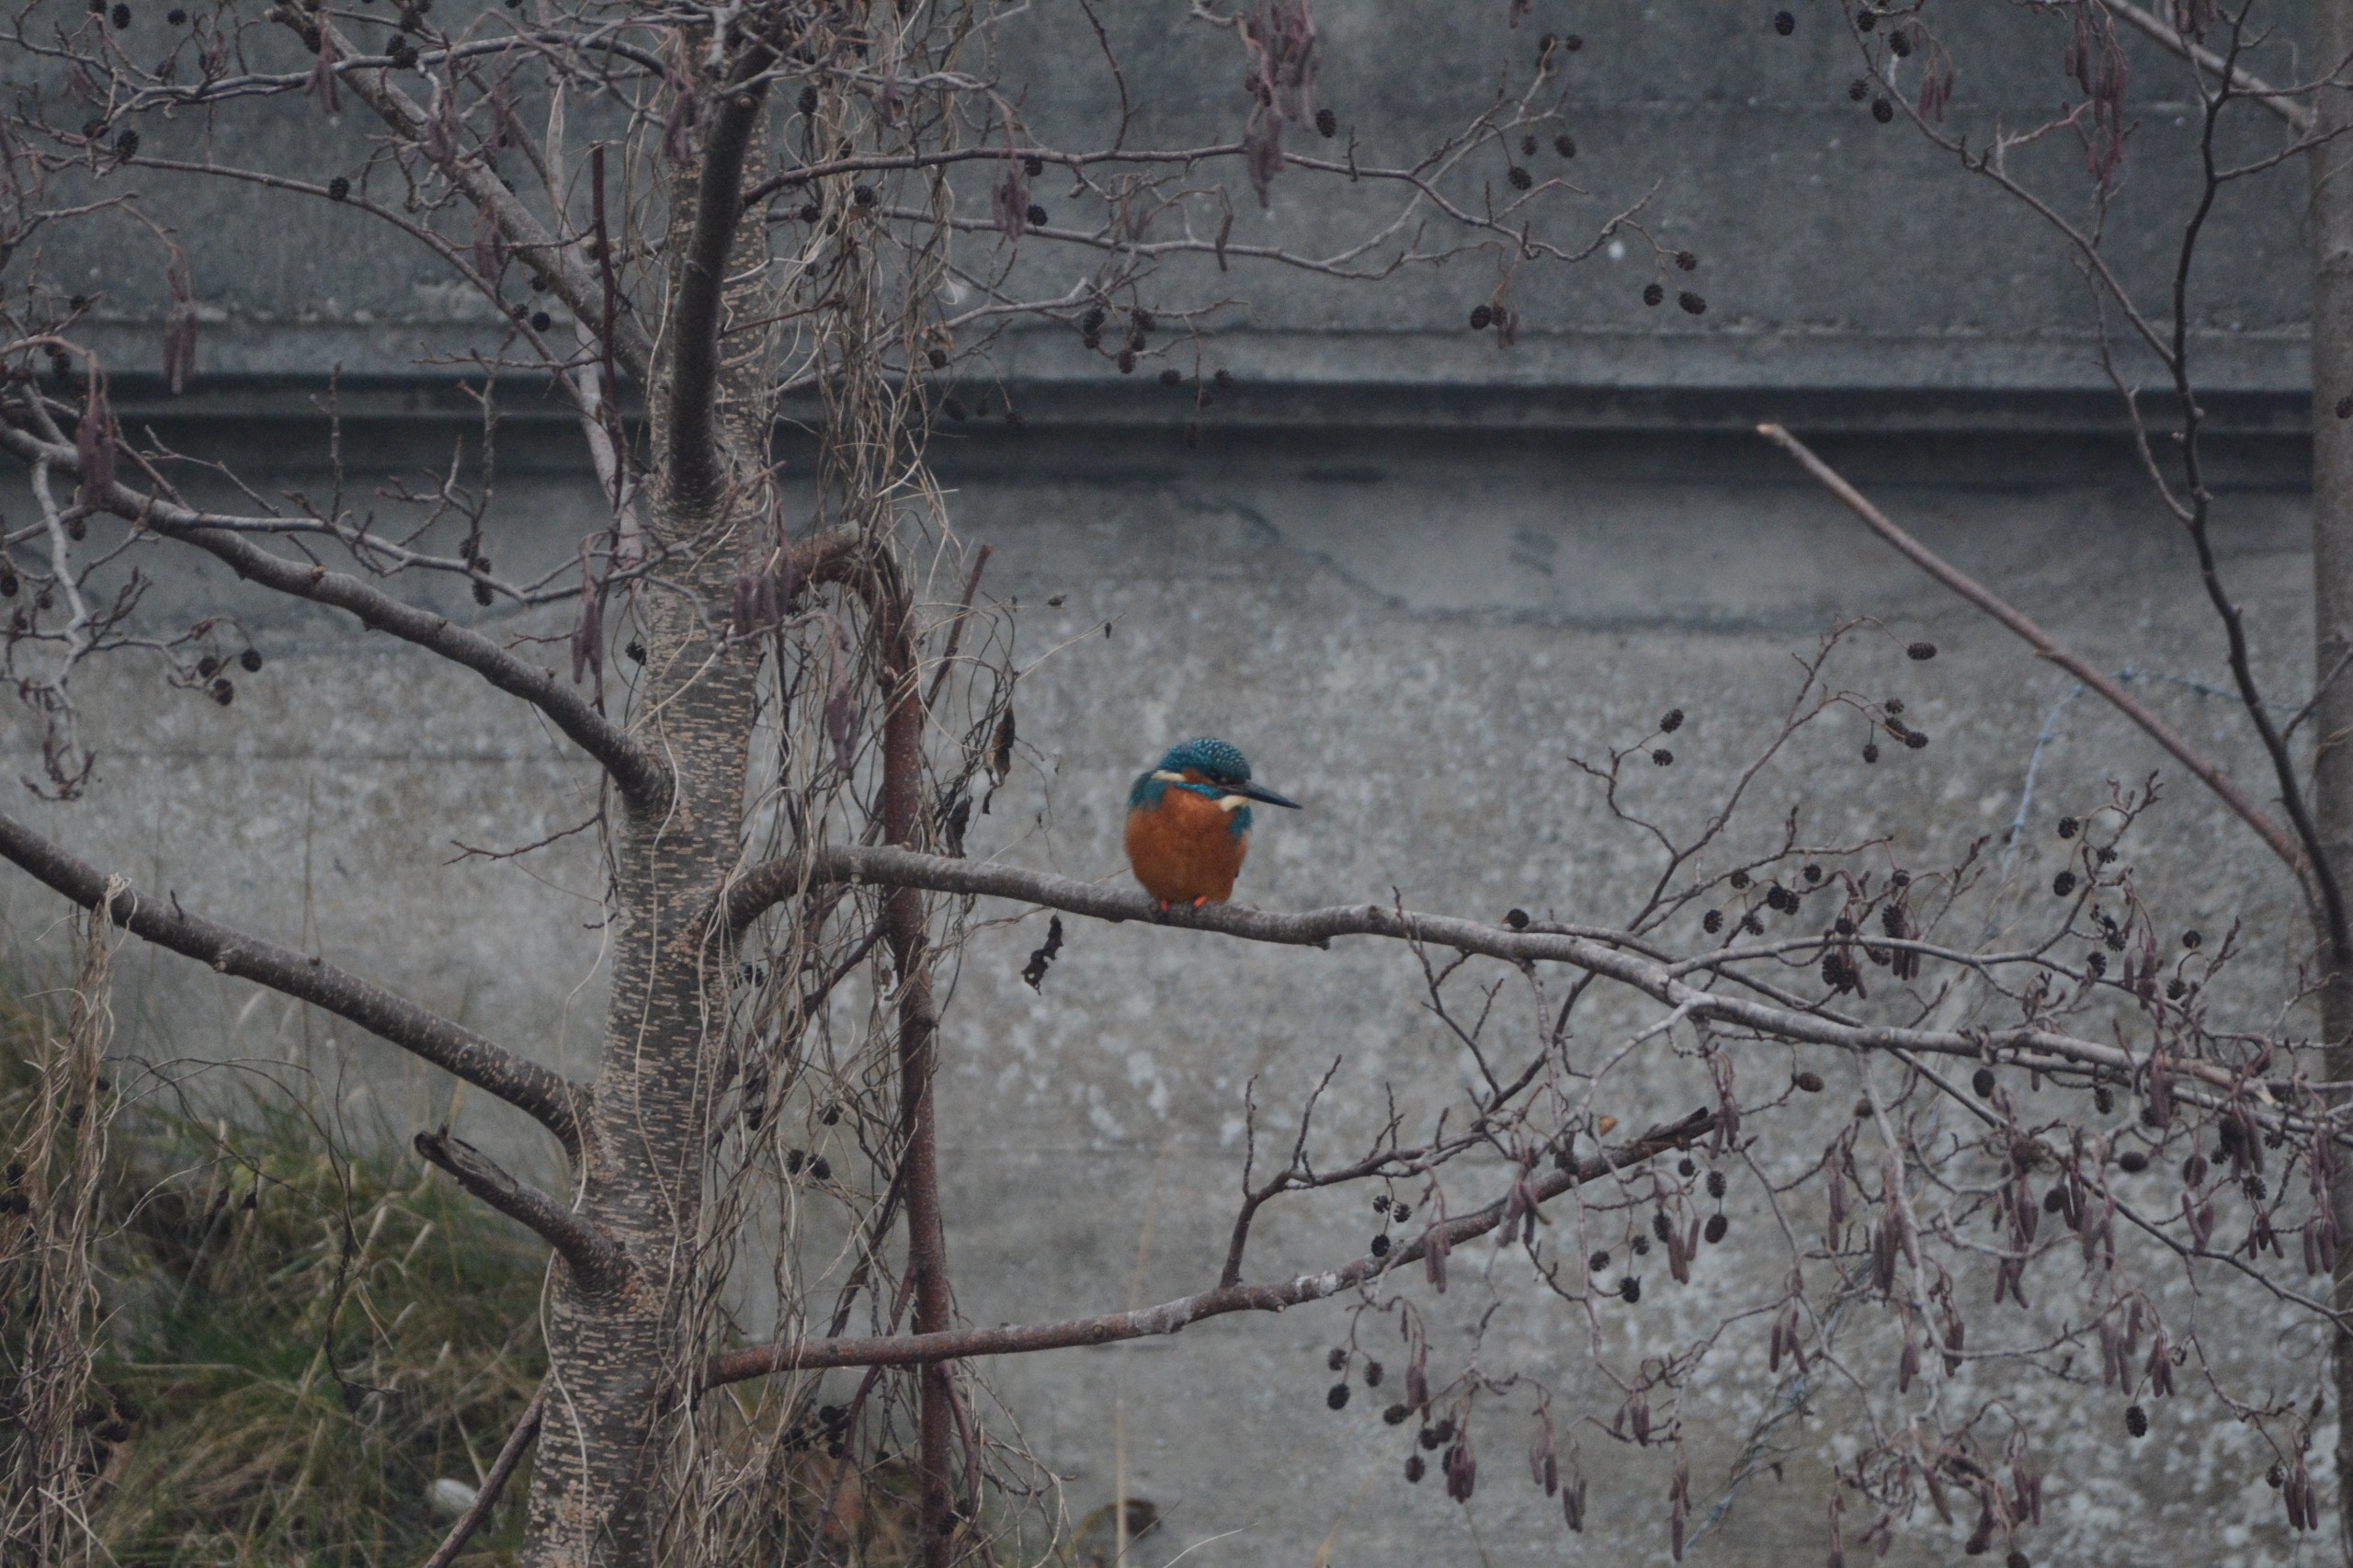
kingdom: Animalia
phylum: Chordata
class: Aves
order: Coraciiformes
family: Alcedinidae
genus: Alcedo
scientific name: Alcedo atthis
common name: Isfugl
